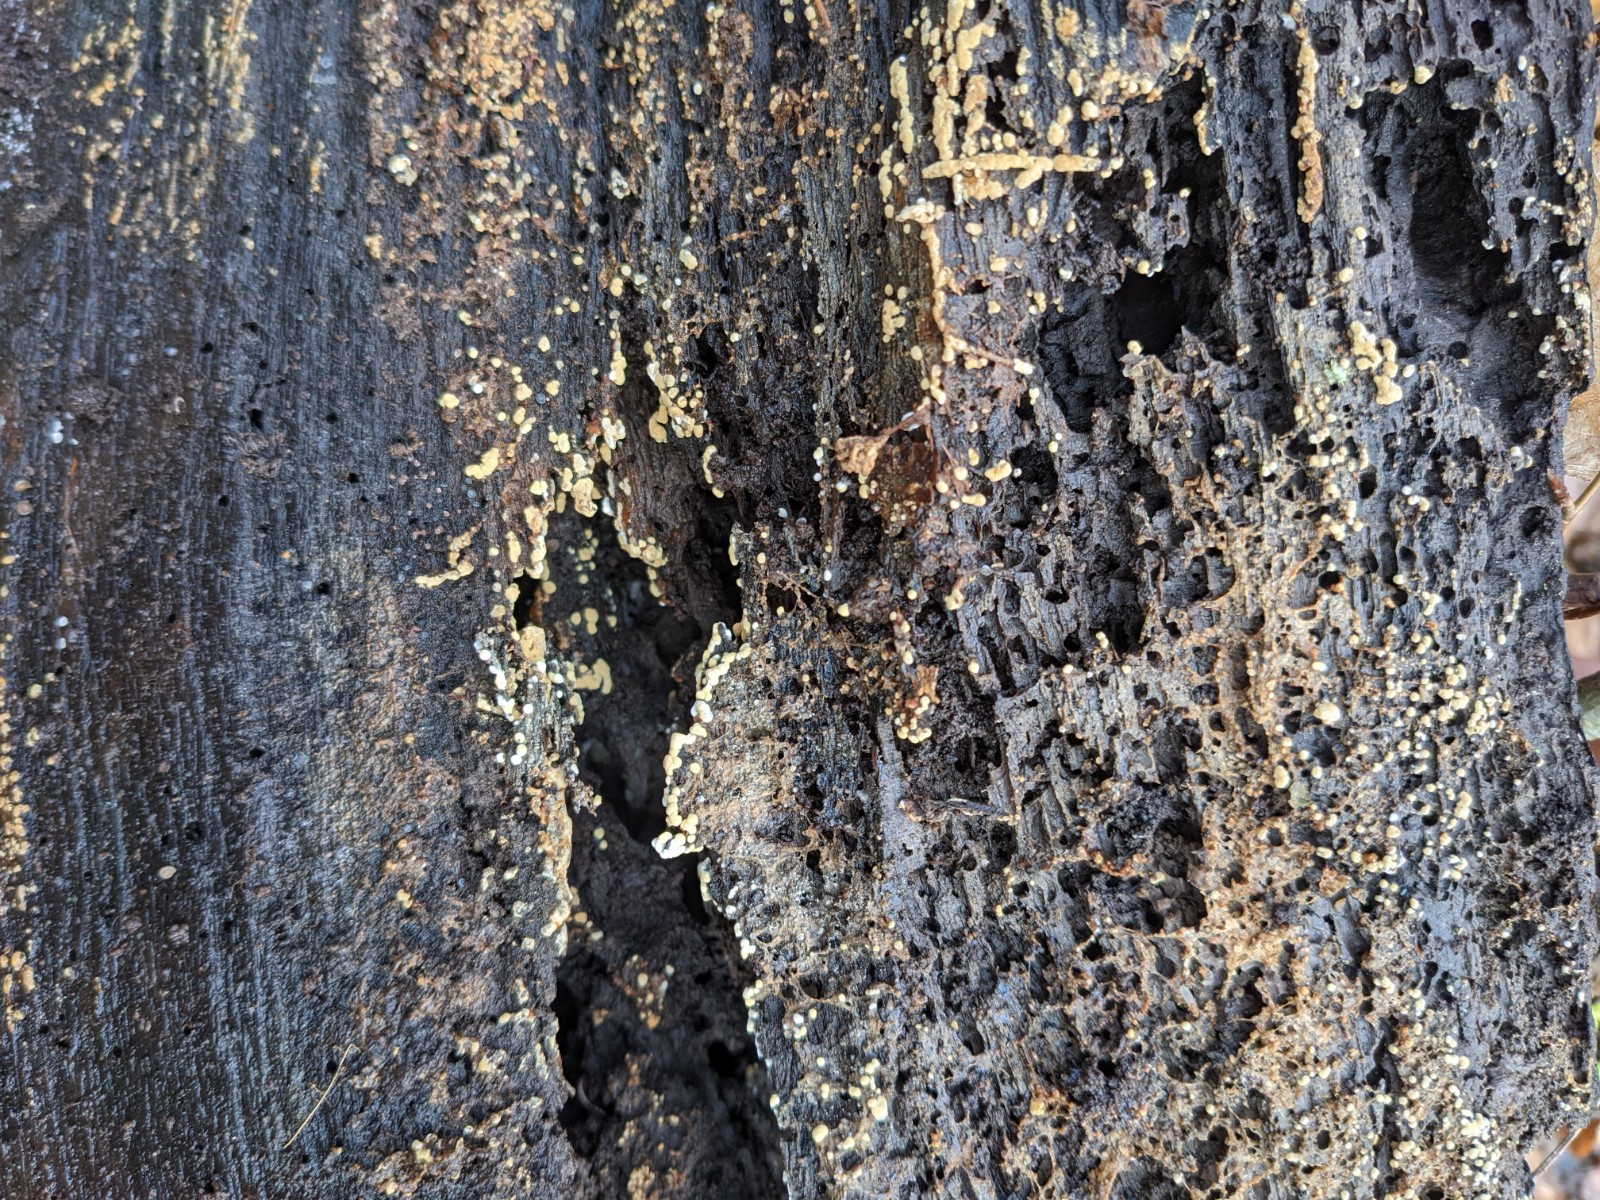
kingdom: Fungi
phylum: Basidiomycota
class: Agaricomycetes
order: Cantharellales
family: Botryobasidiaceae
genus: Botryobasidium
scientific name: Botryobasidium aureum
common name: gylden spindhinde
